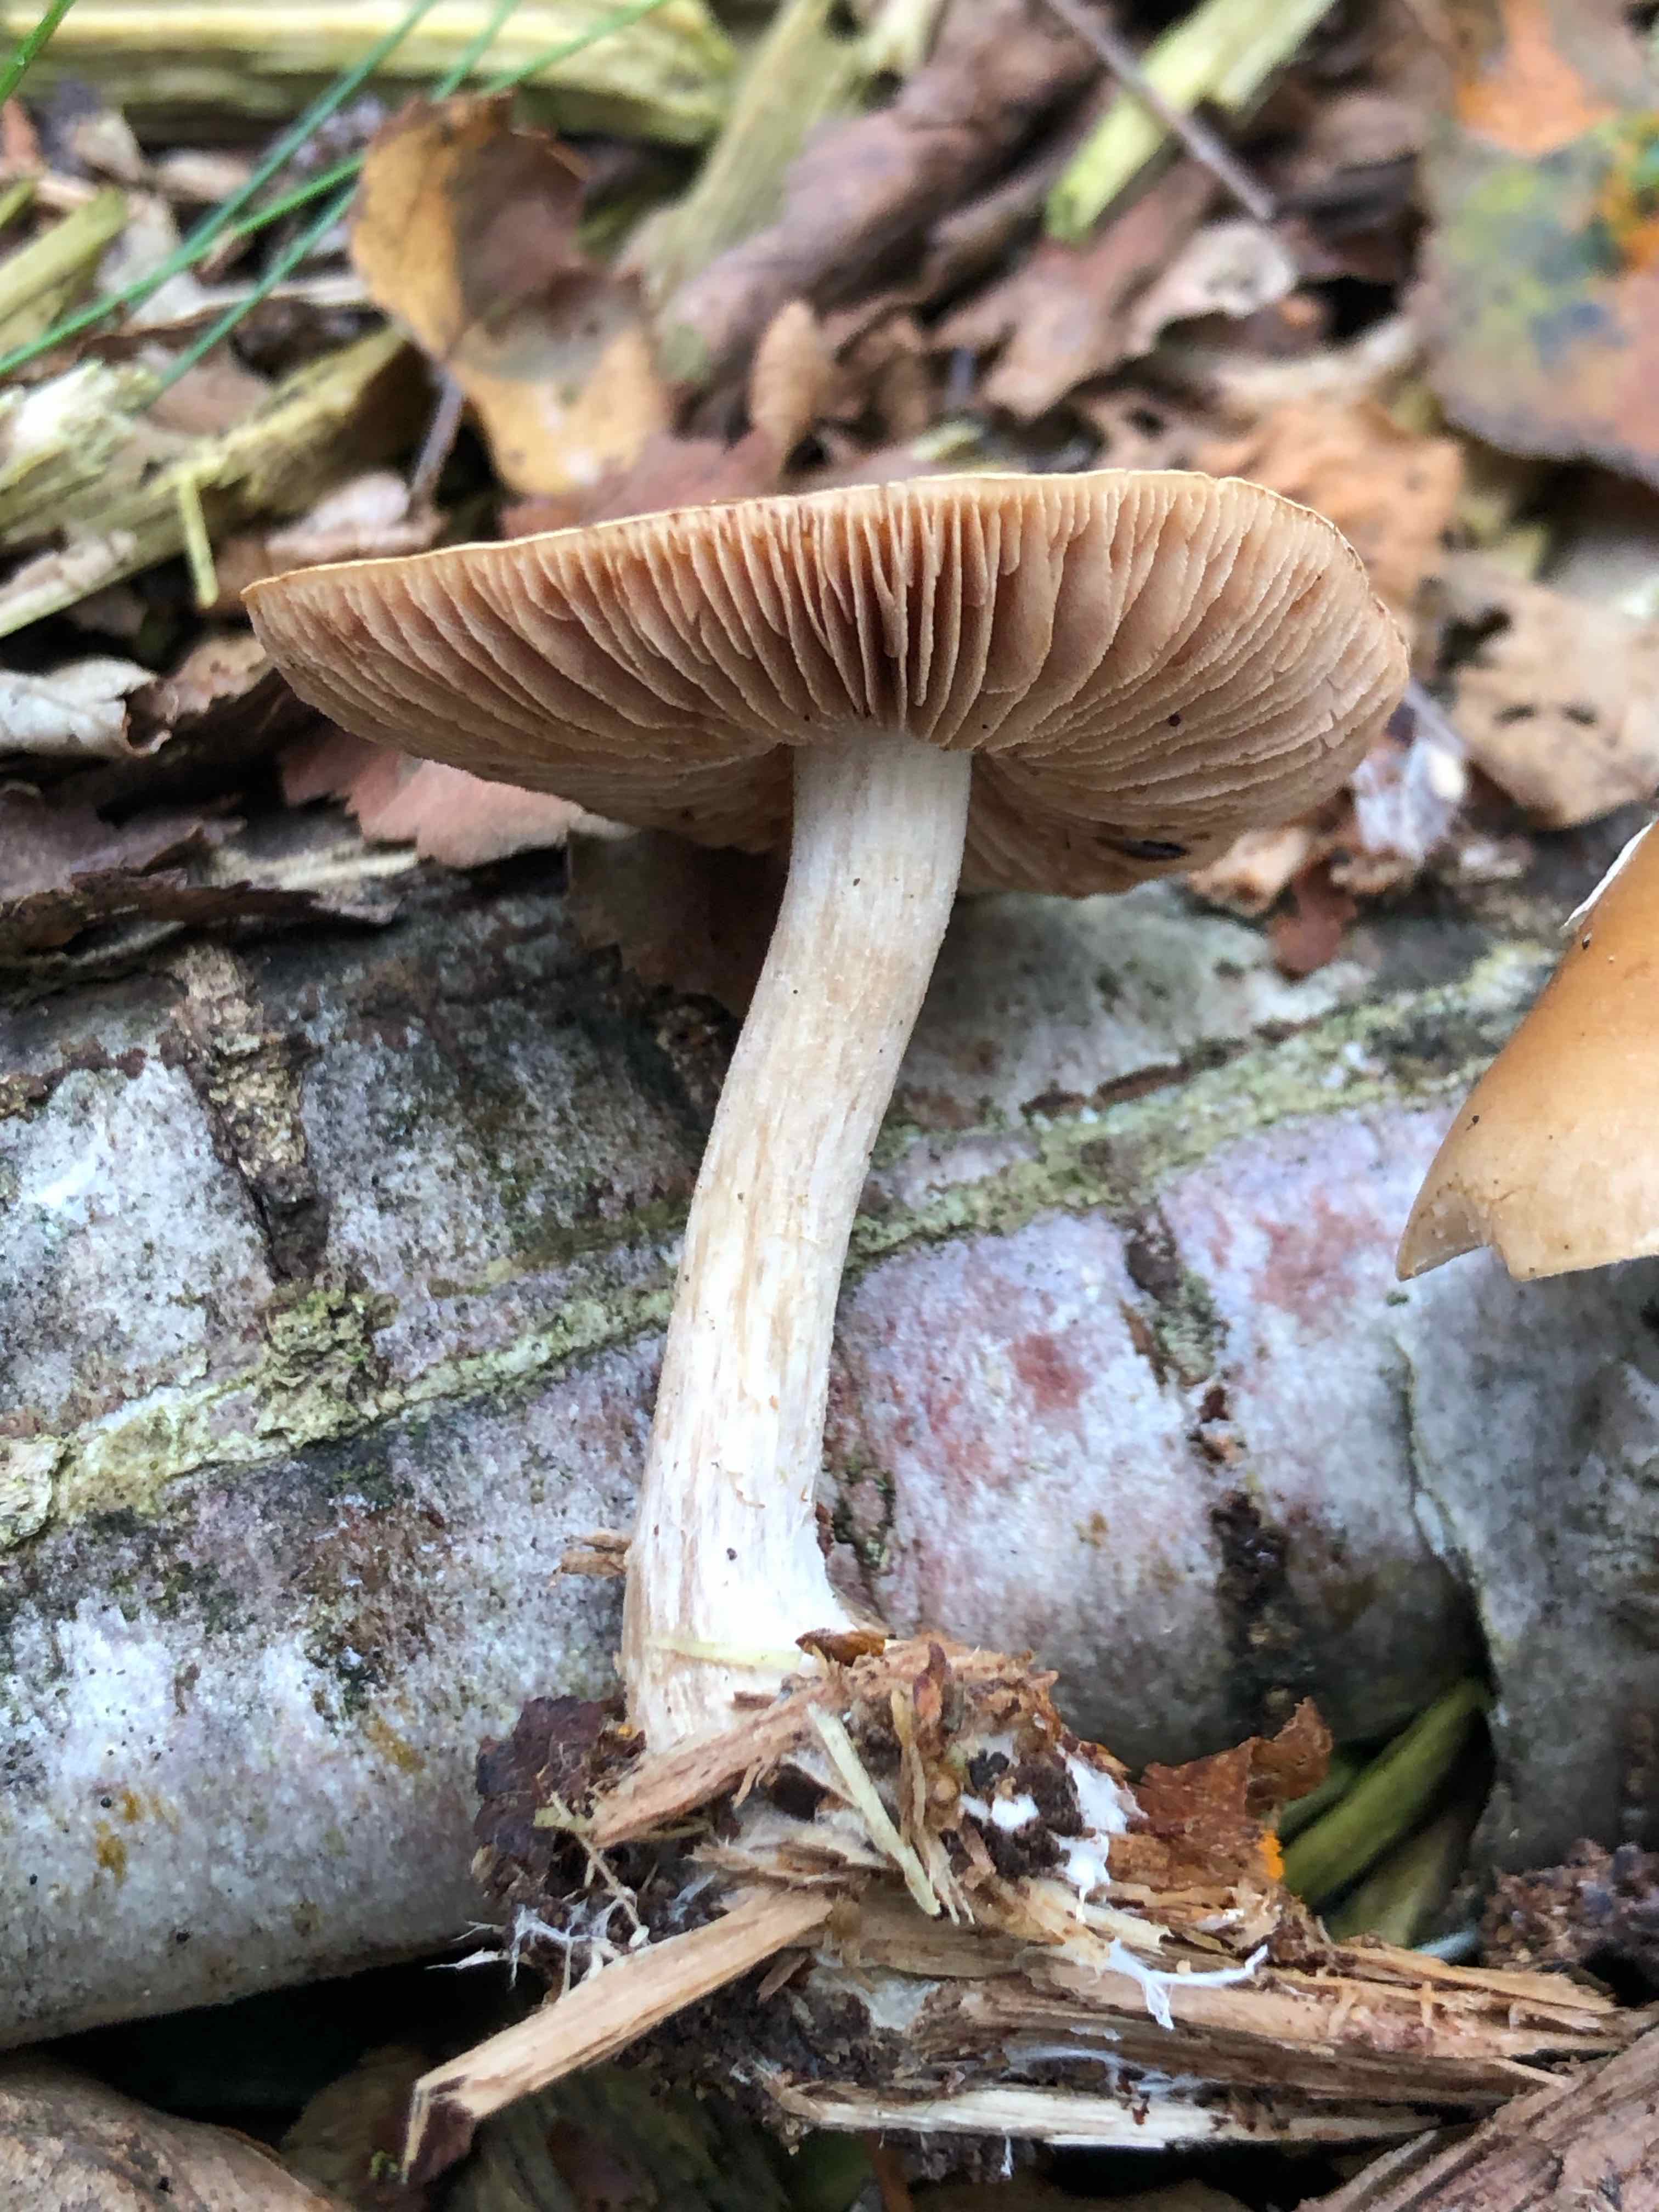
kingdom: Fungi
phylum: Basidiomycota
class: Agaricomycetes
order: Agaricales
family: Hymenogastraceae
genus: Hebeloma
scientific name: Hebeloma
